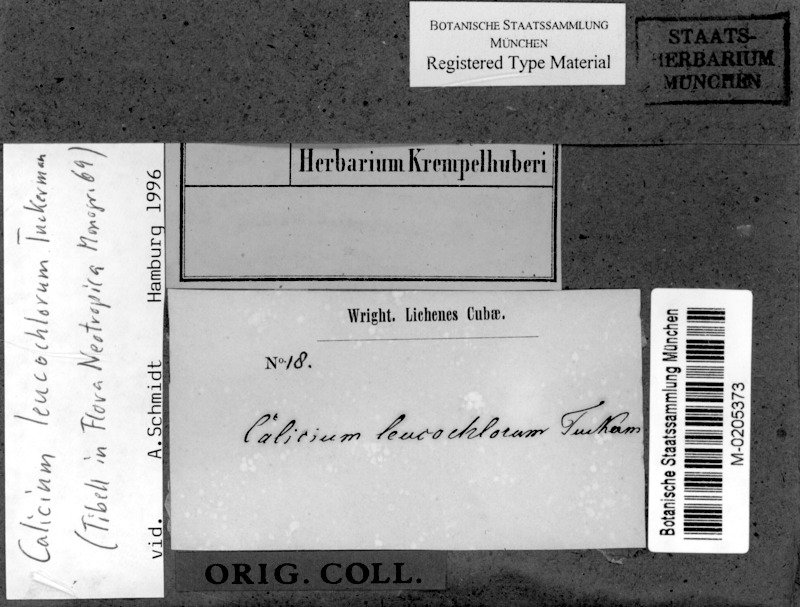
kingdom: Fungi
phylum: Ascomycota
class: Lecanoromycetes
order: Caliciales
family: Caliciaceae
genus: Calicium
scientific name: Calicium leucochlorum
